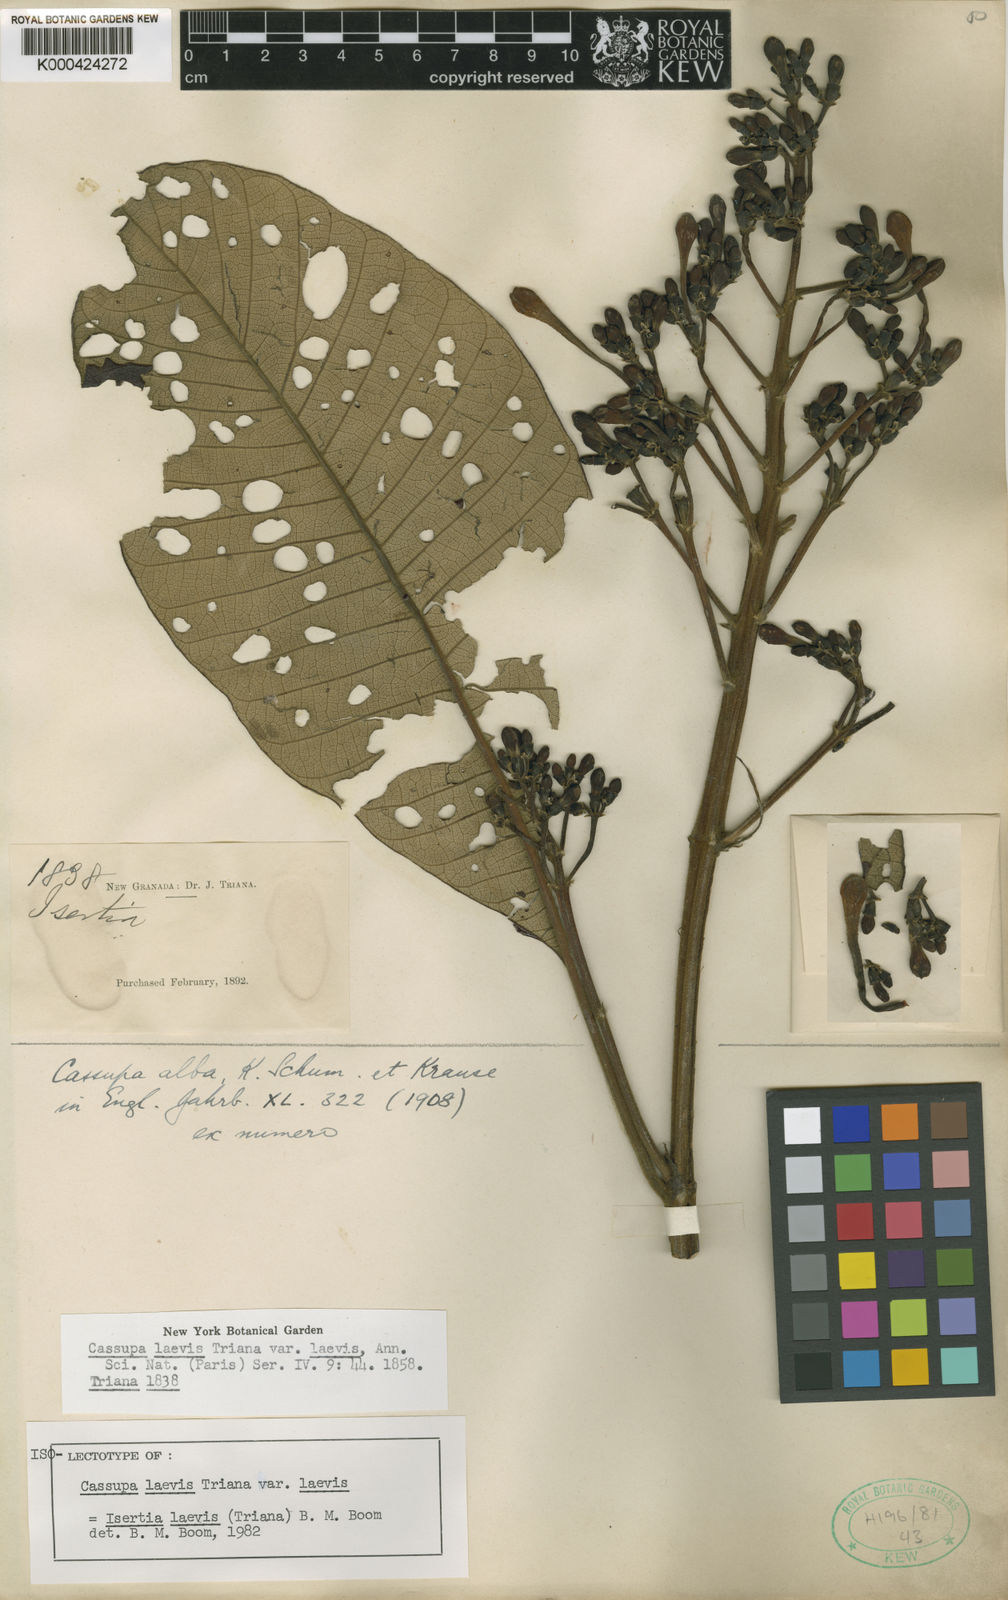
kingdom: Plantae
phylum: Tracheophyta
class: Magnoliopsida
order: Gentianales
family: Rubiaceae
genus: Isertia
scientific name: Isertia laevis
